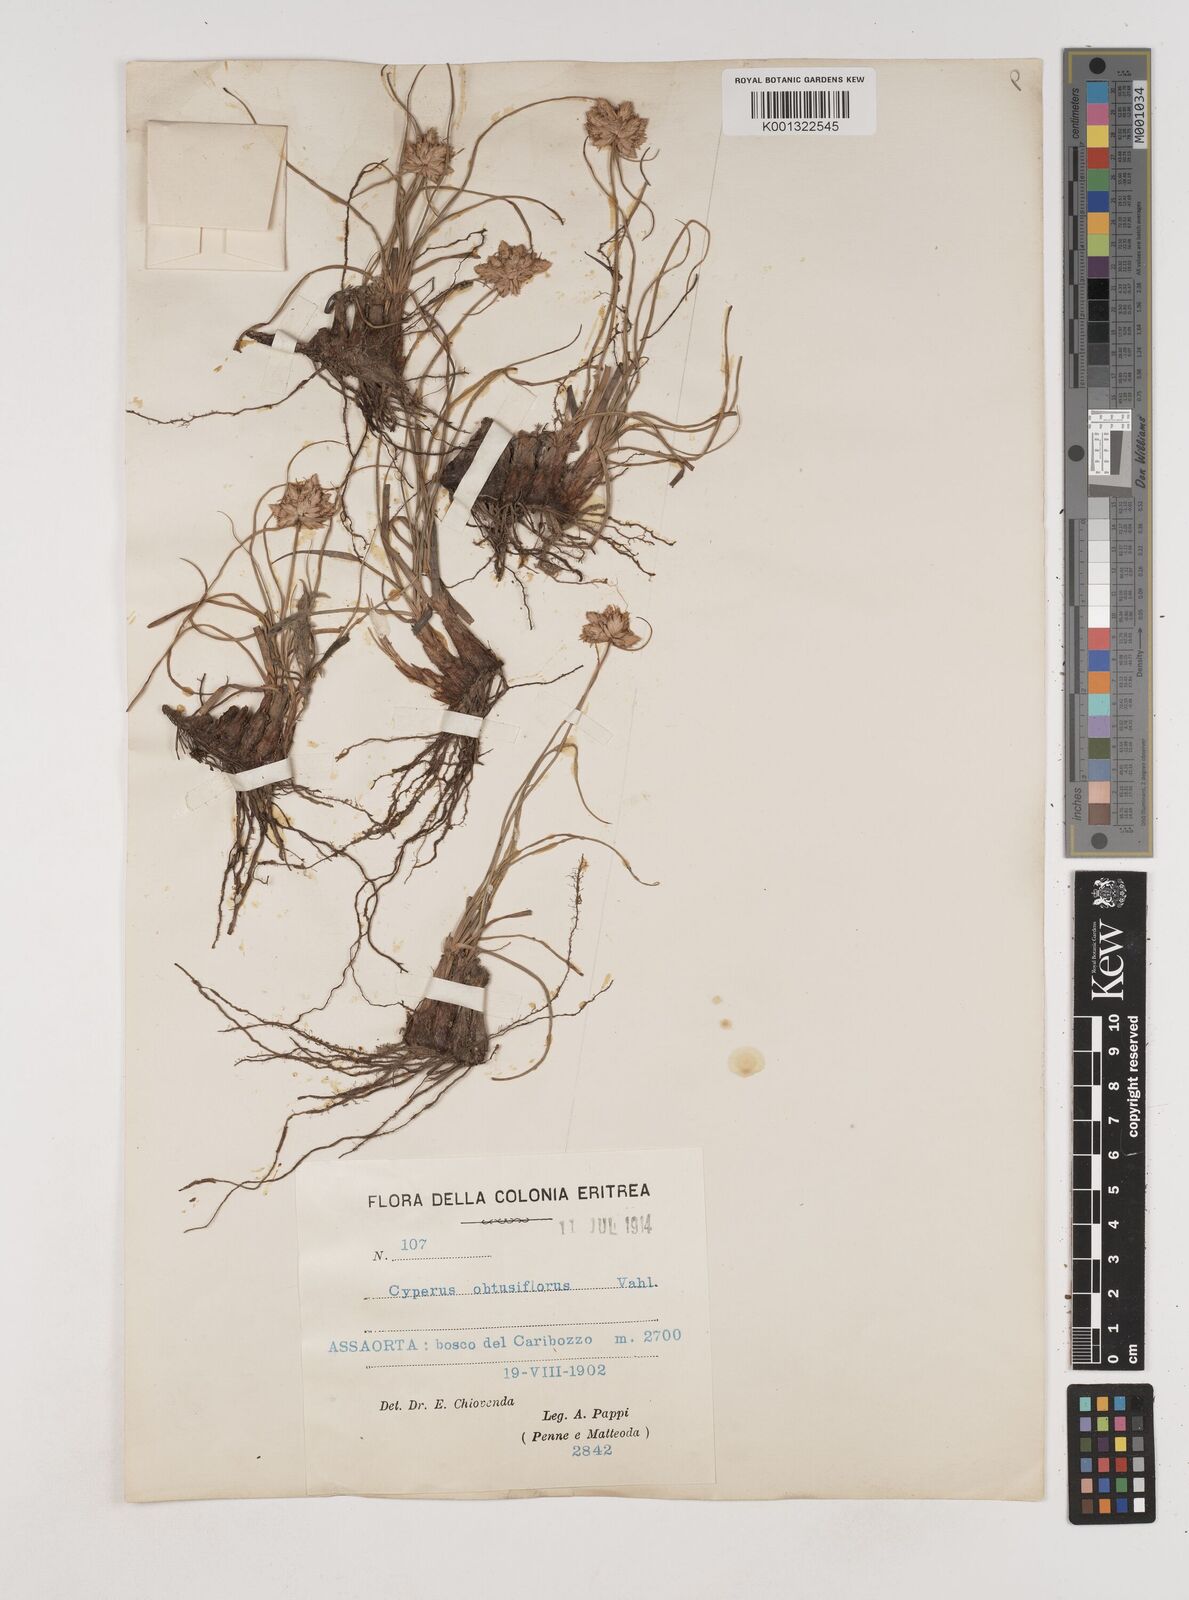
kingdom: Plantae
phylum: Tracheophyta
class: Liliopsida
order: Poales
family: Cyperaceae
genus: Cyperus
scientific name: Cyperus niveus
